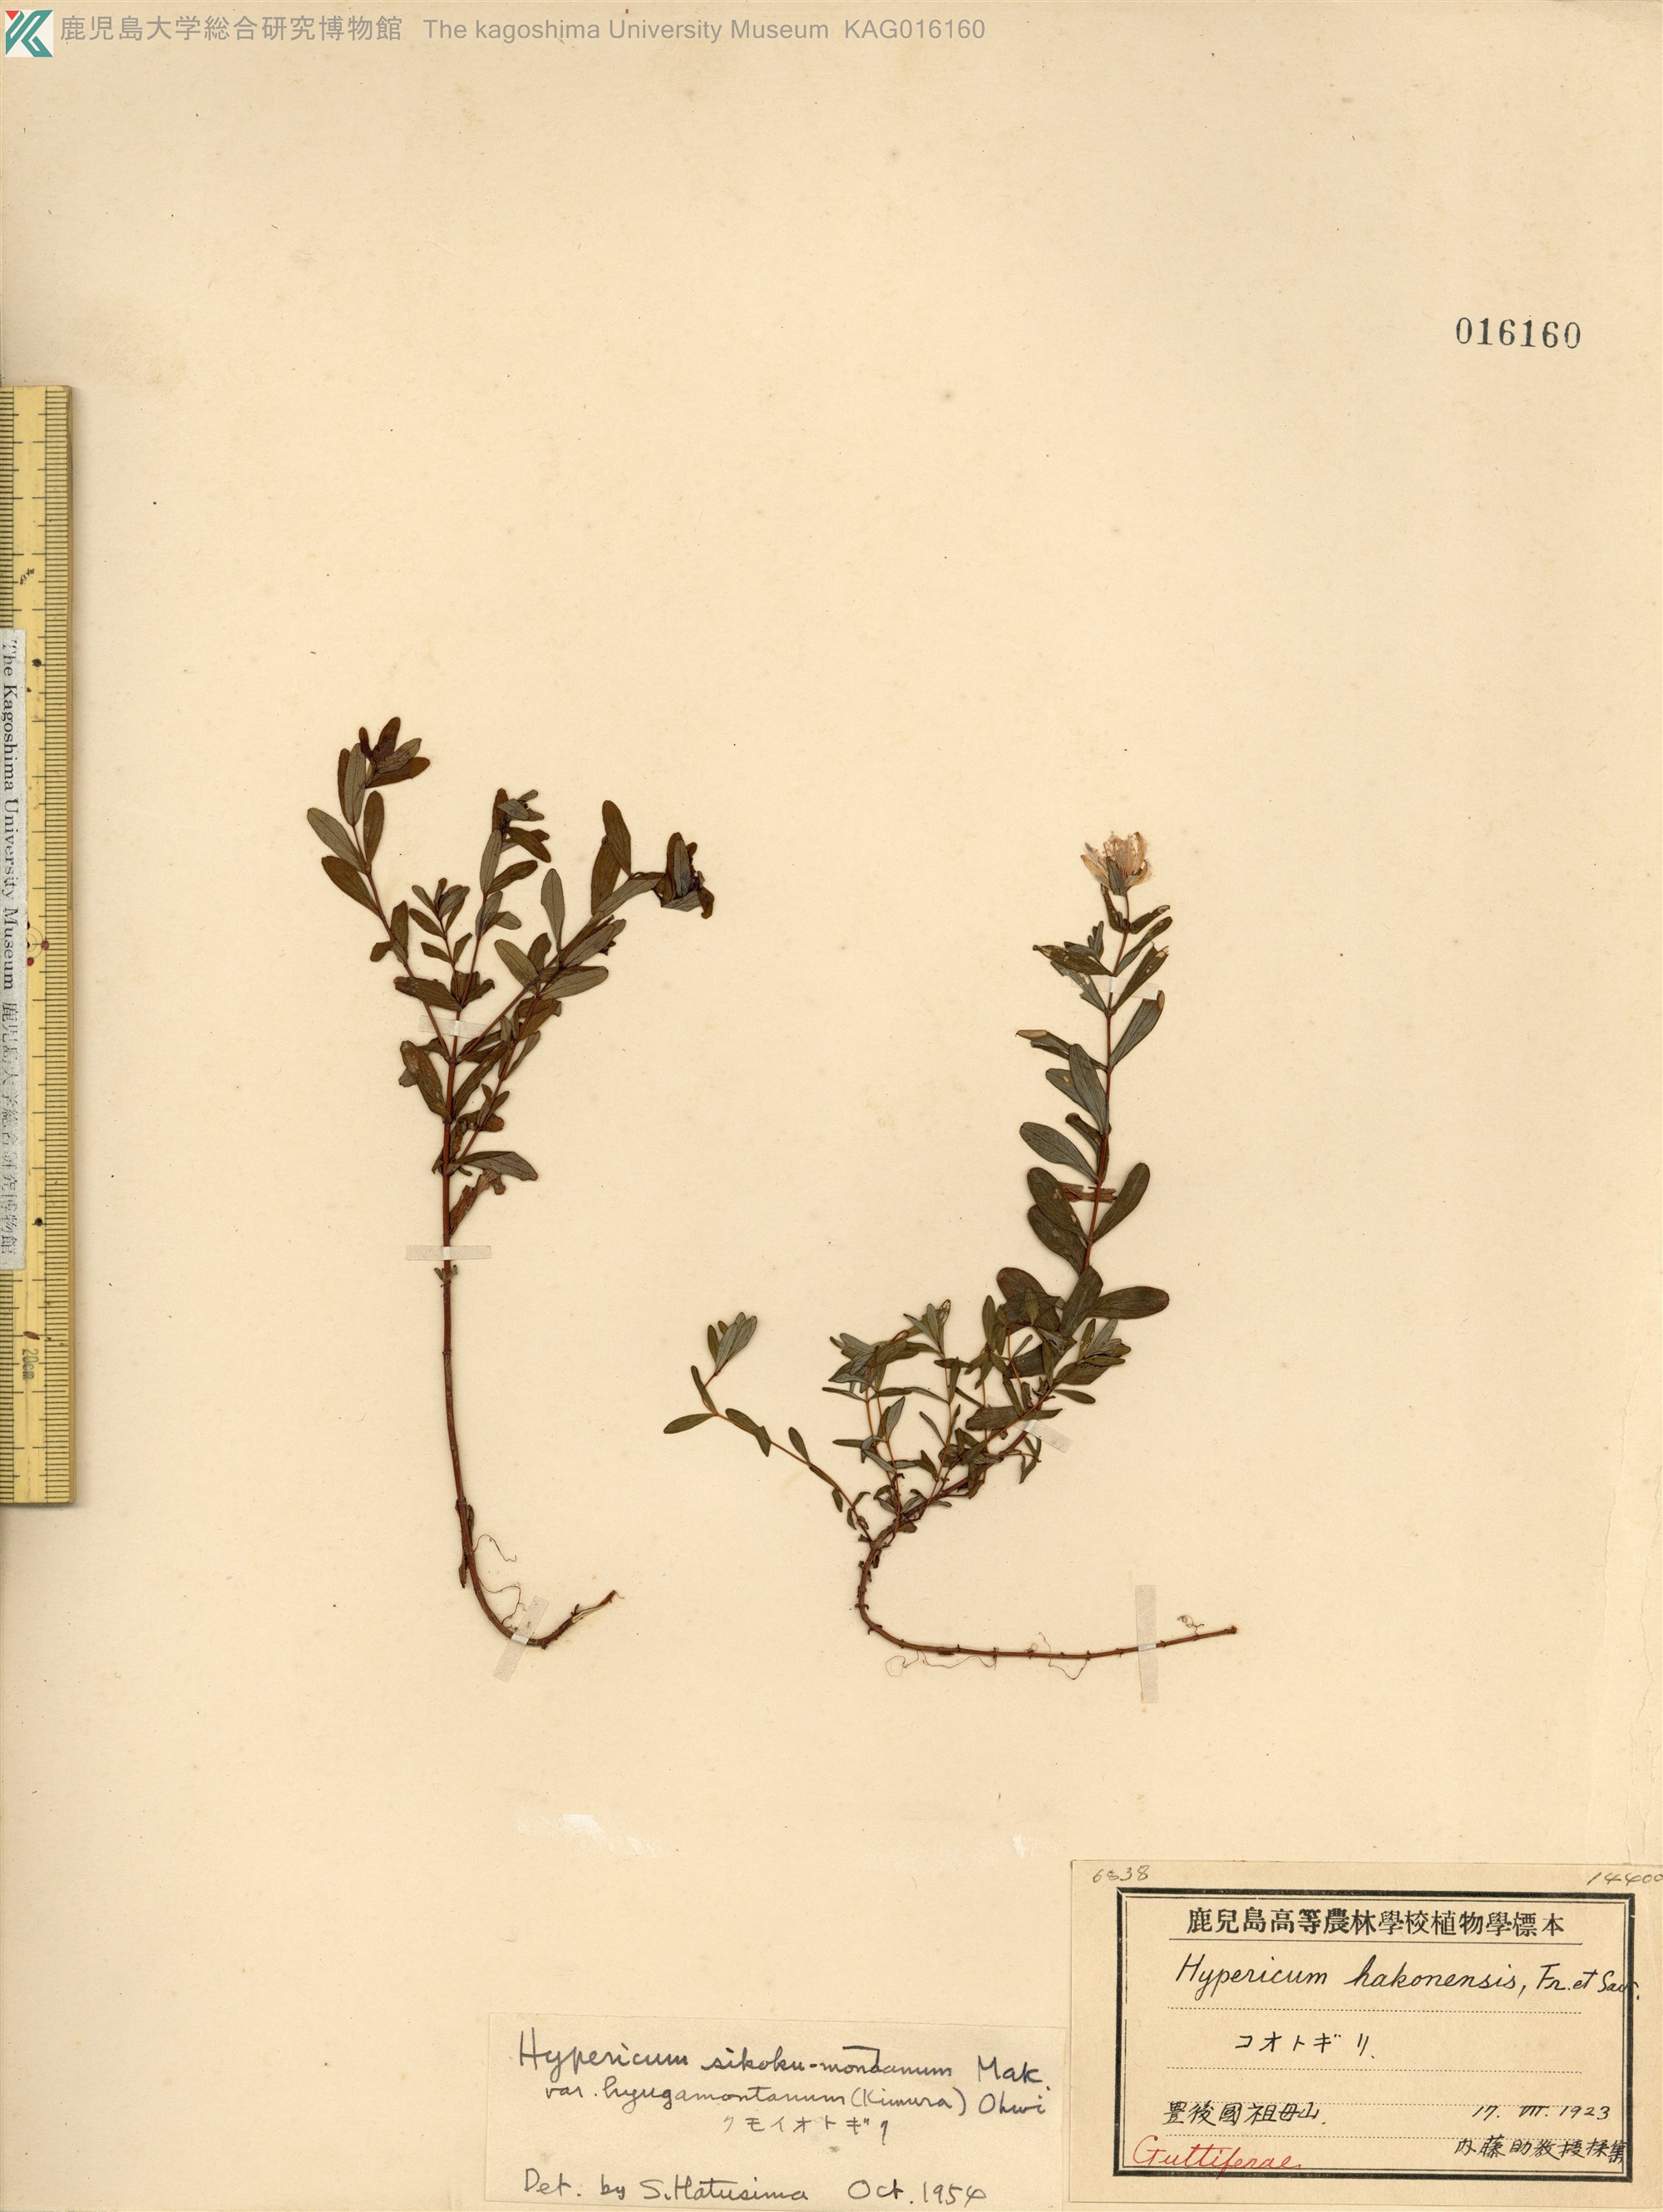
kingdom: Plantae
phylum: Tracheophyta
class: Magnoliopsida
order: Malpighiales
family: Hypericaceae
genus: Hypericum
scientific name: Hypericum sikokumontanum
